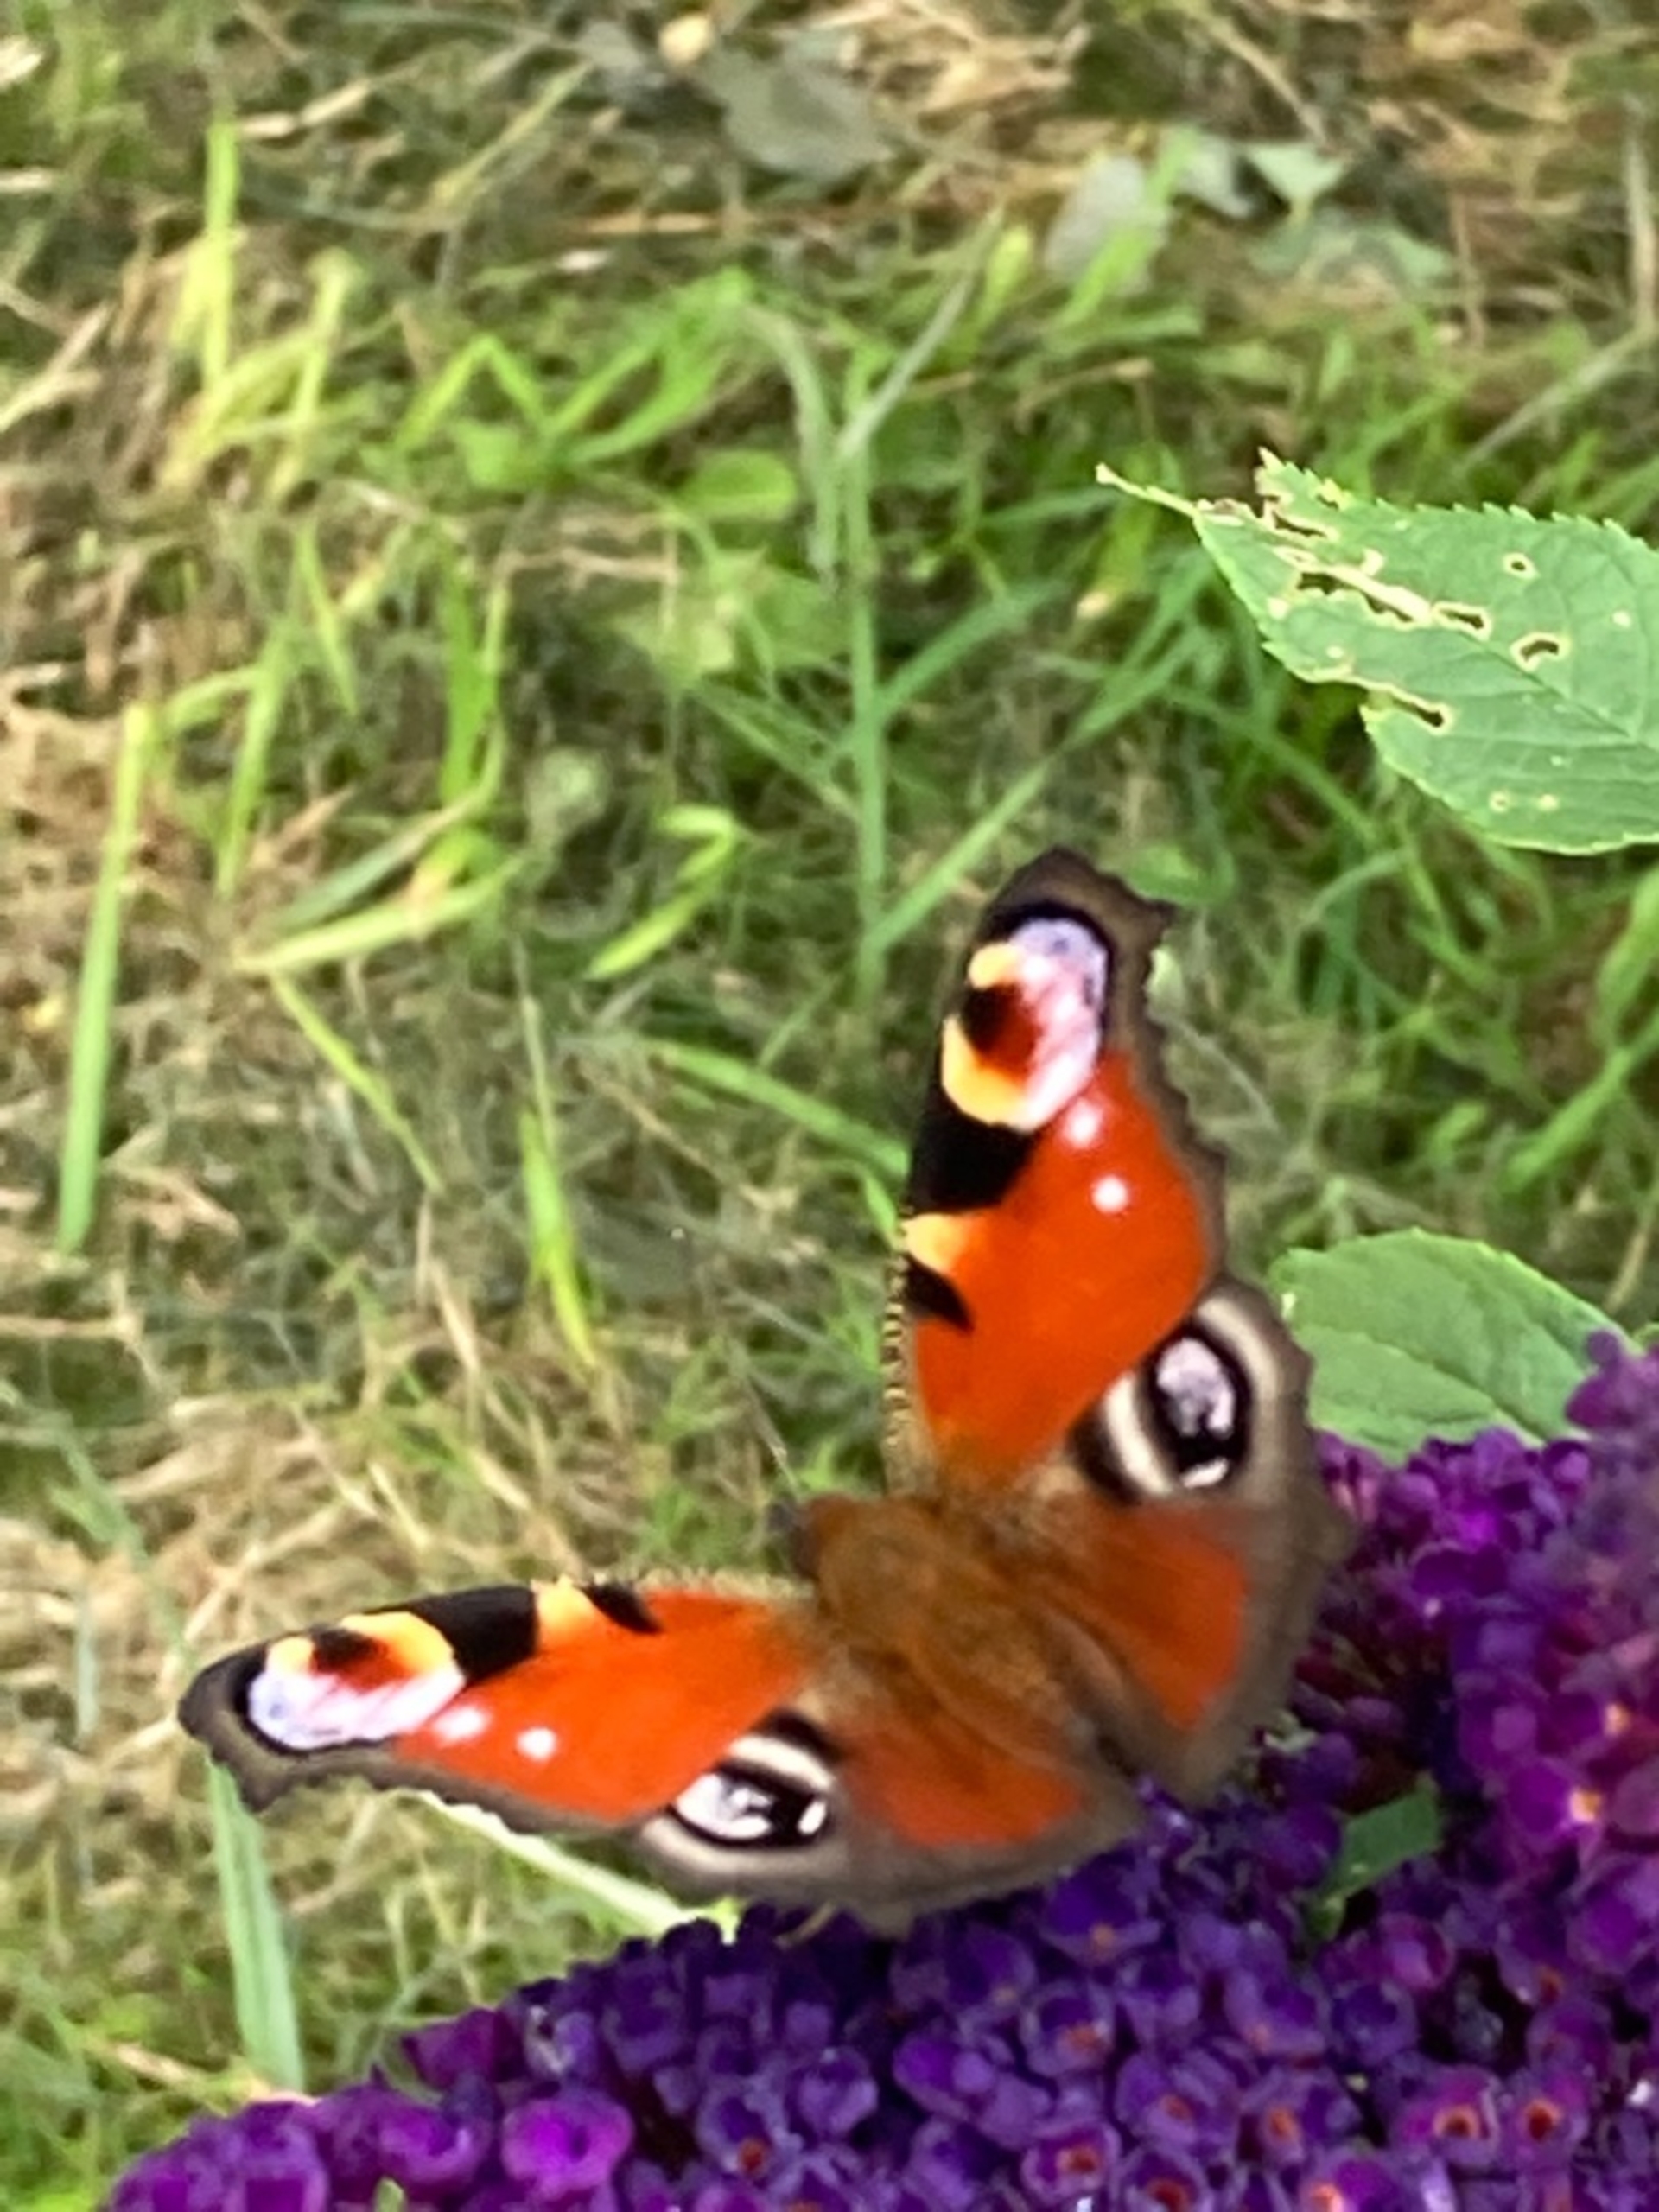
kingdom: Animalia
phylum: Arthropoda
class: Insecta
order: Lepidoptera
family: Nymphalidae
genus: Aglais
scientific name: Aglais io
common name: Dagpåfugleøje
